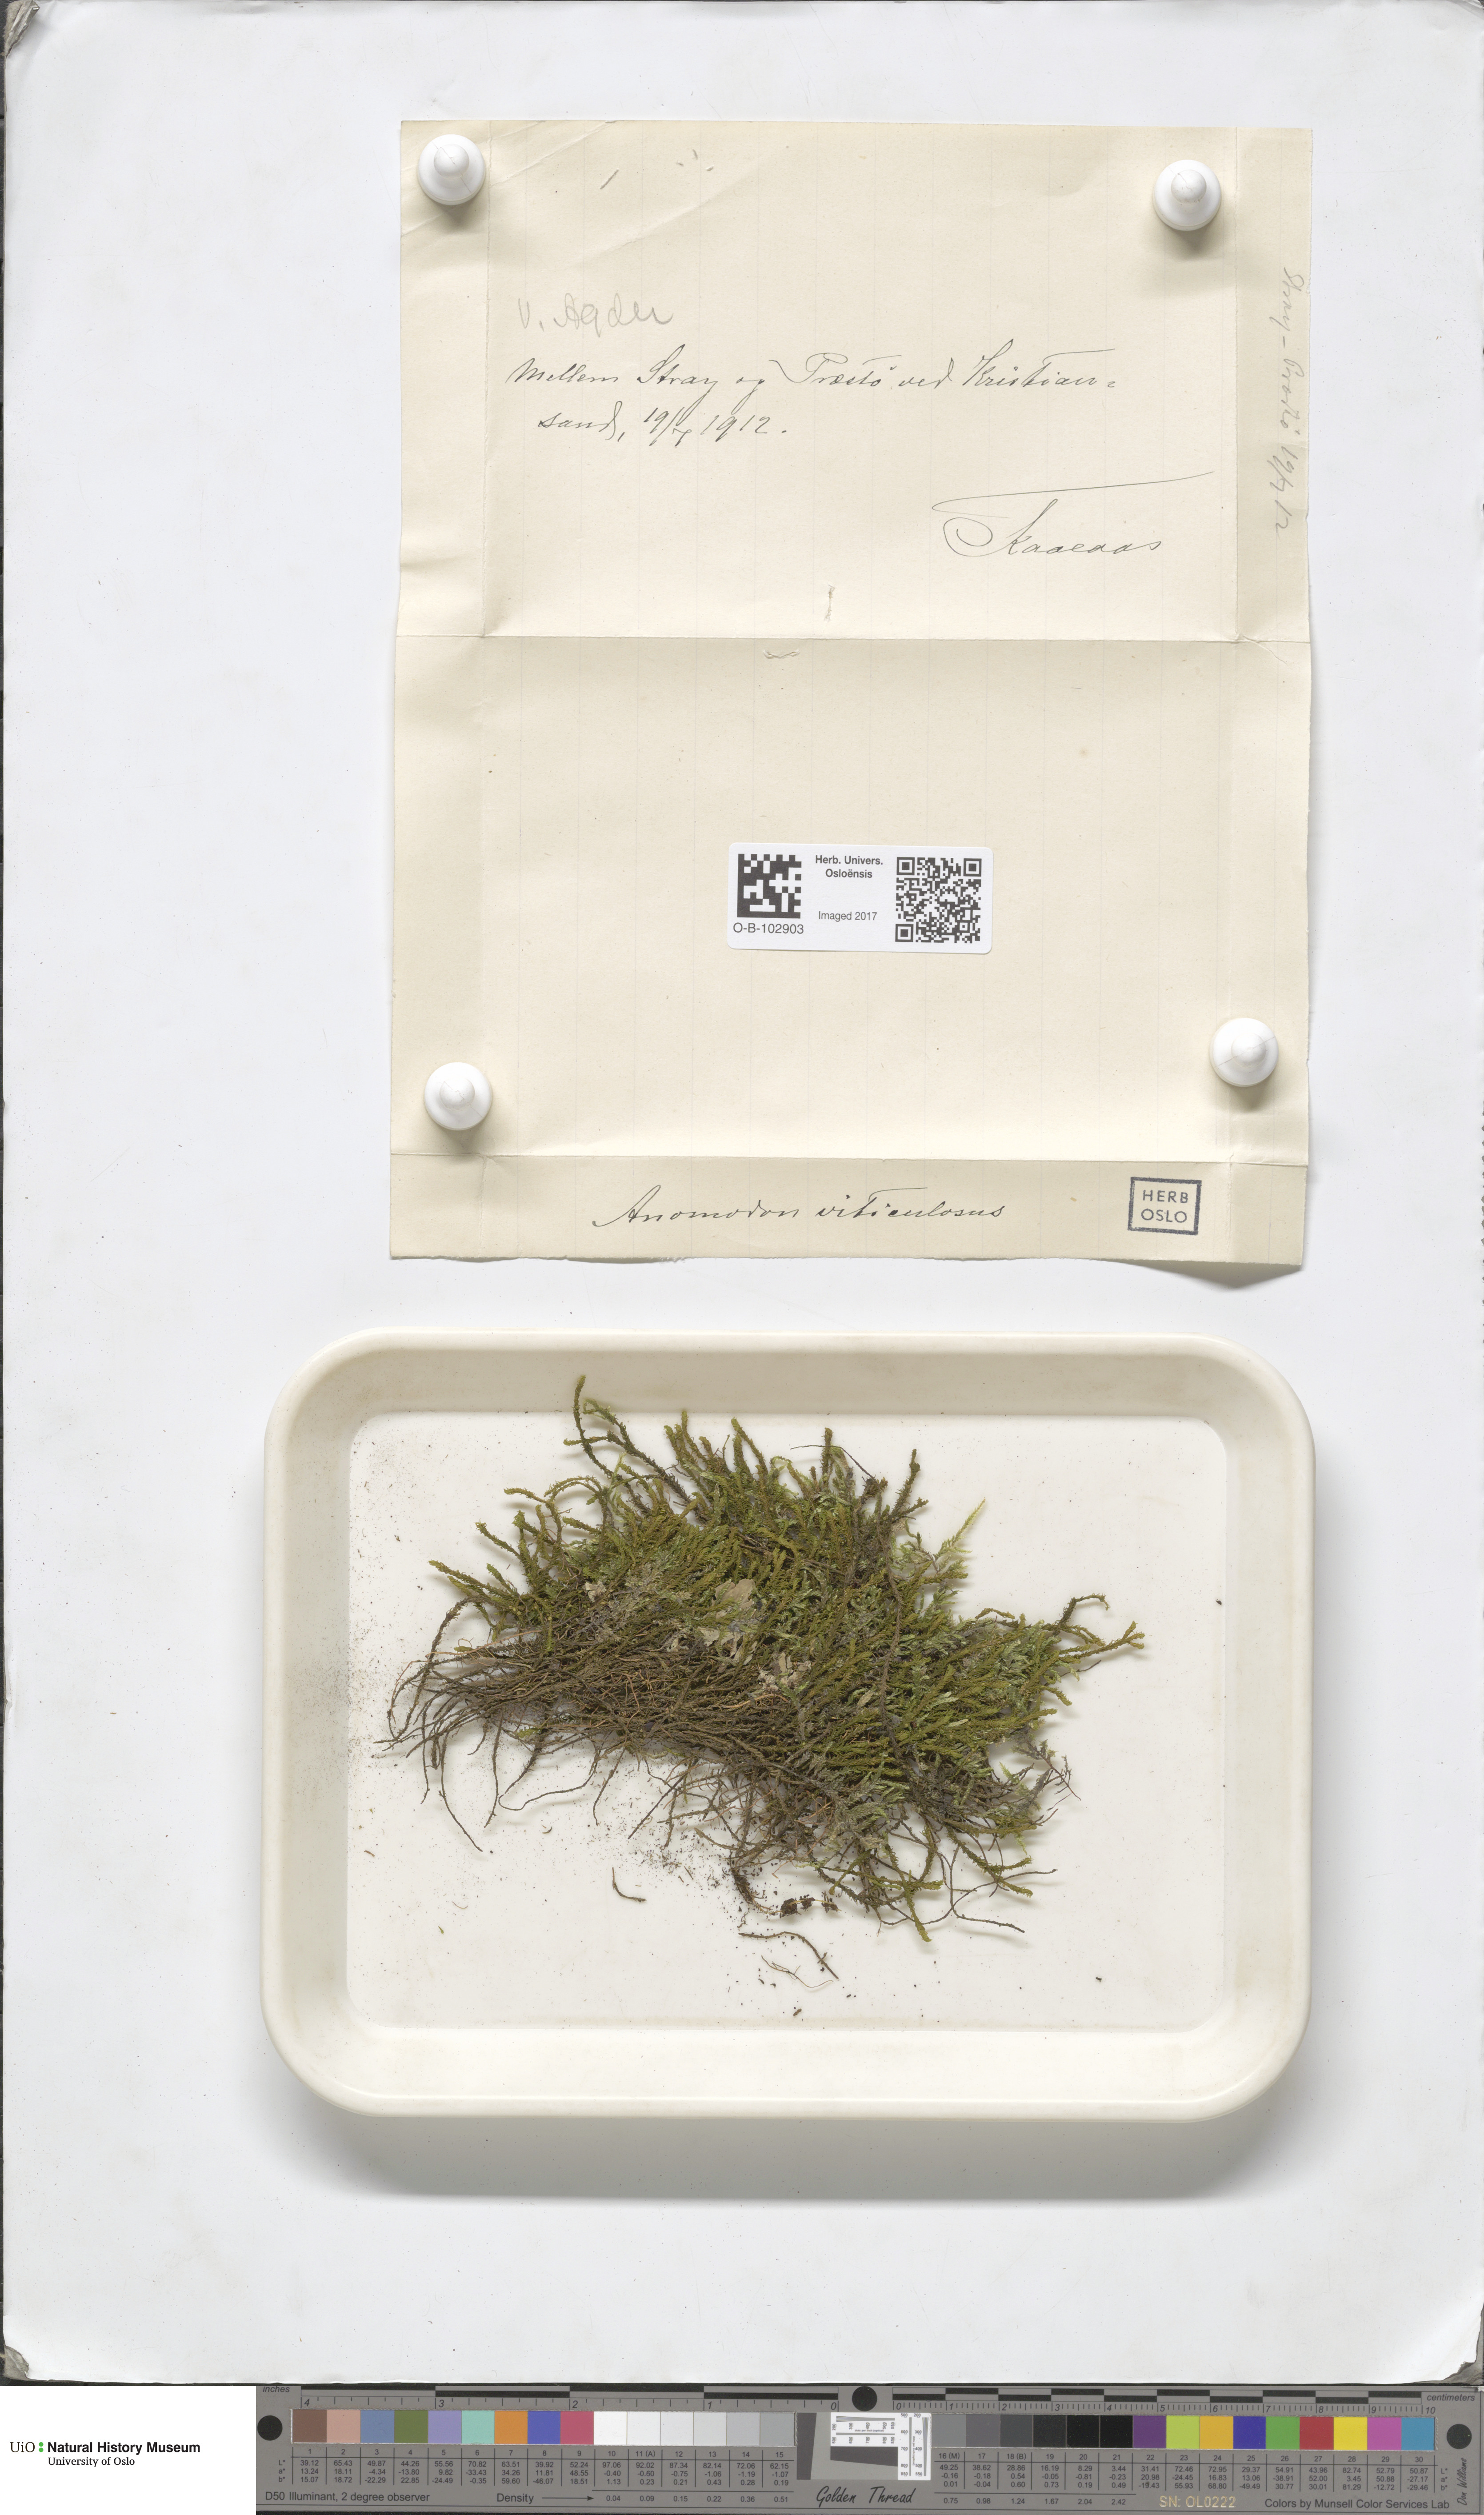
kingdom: Plantae
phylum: Bryophyta
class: Bryopsida
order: Hypnales
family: Anomodontaceae
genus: Anomodon
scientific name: Anomodon viticulosus
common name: Tall anomodon
